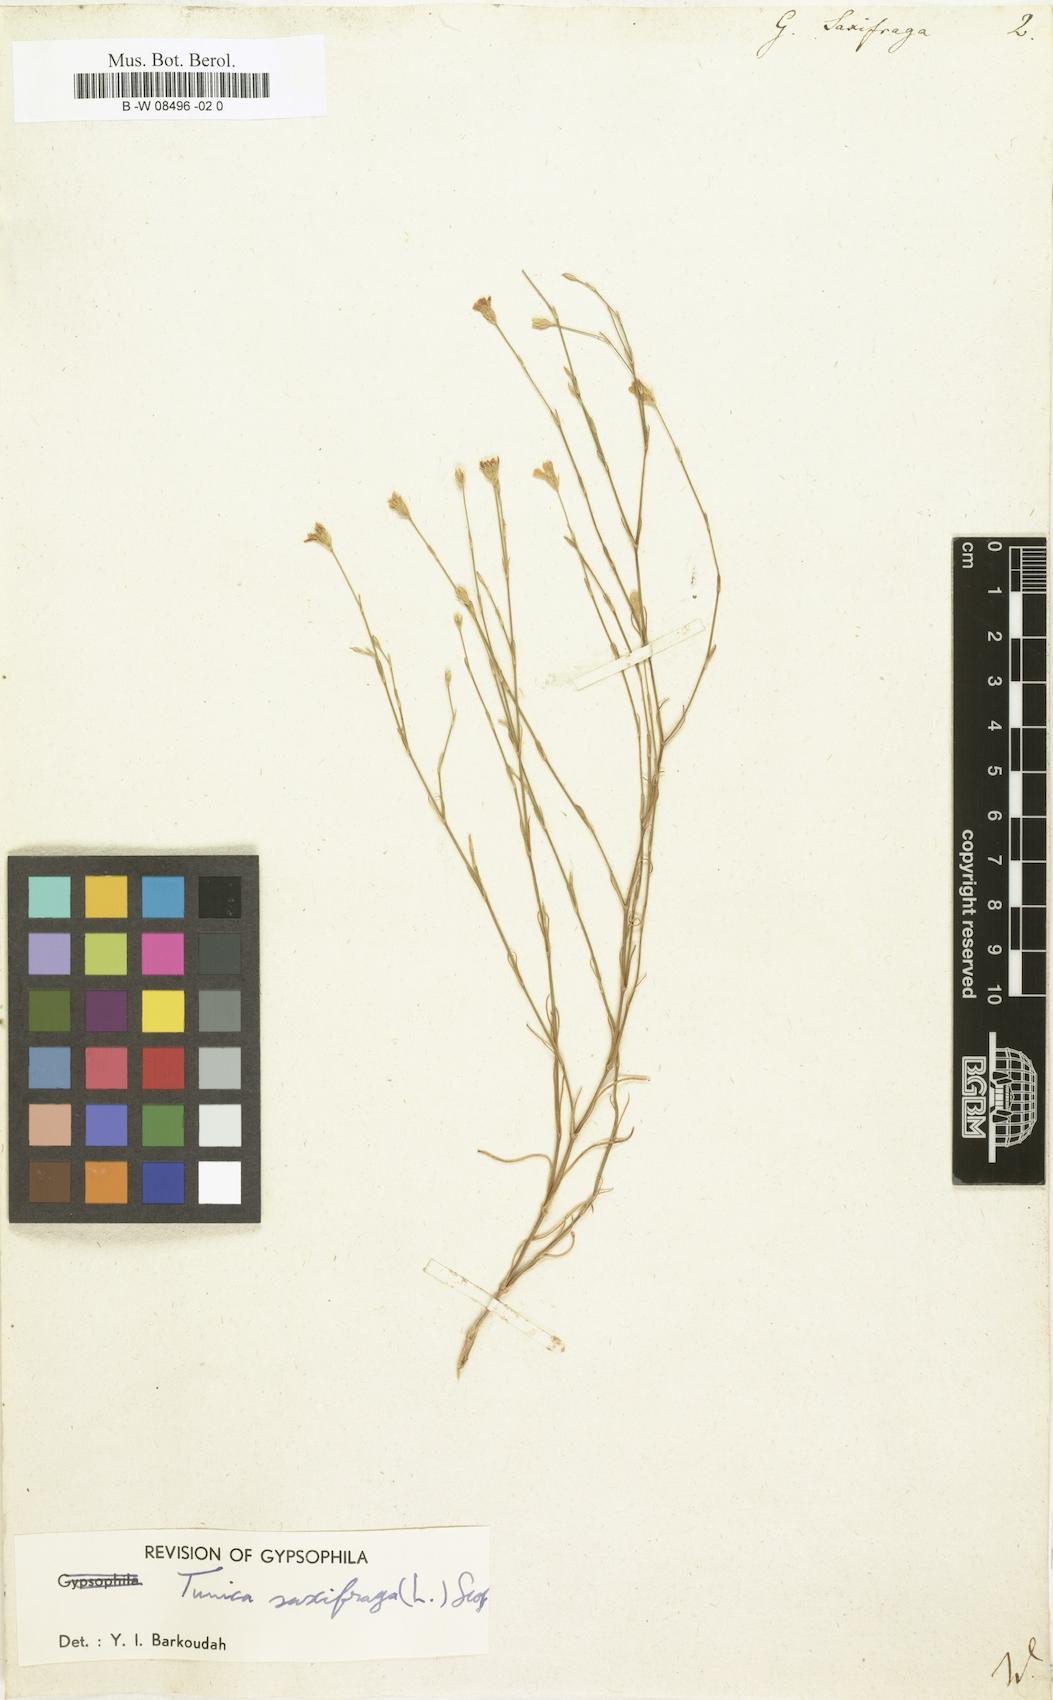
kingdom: Plantae
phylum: Tracheophyta
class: Magnoliopsida
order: Caryophyllales
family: Caryophyllaceae
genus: Petrorhagia
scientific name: Petrorhagia saxifraga
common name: Tunicflower
